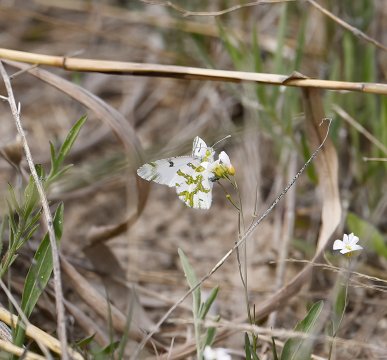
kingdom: Animalia
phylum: Arthropoda
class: Insecta
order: Lepidoptera
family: Pieridae
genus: Euchloe
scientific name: Euchloe olympia
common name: Olympia Marble
